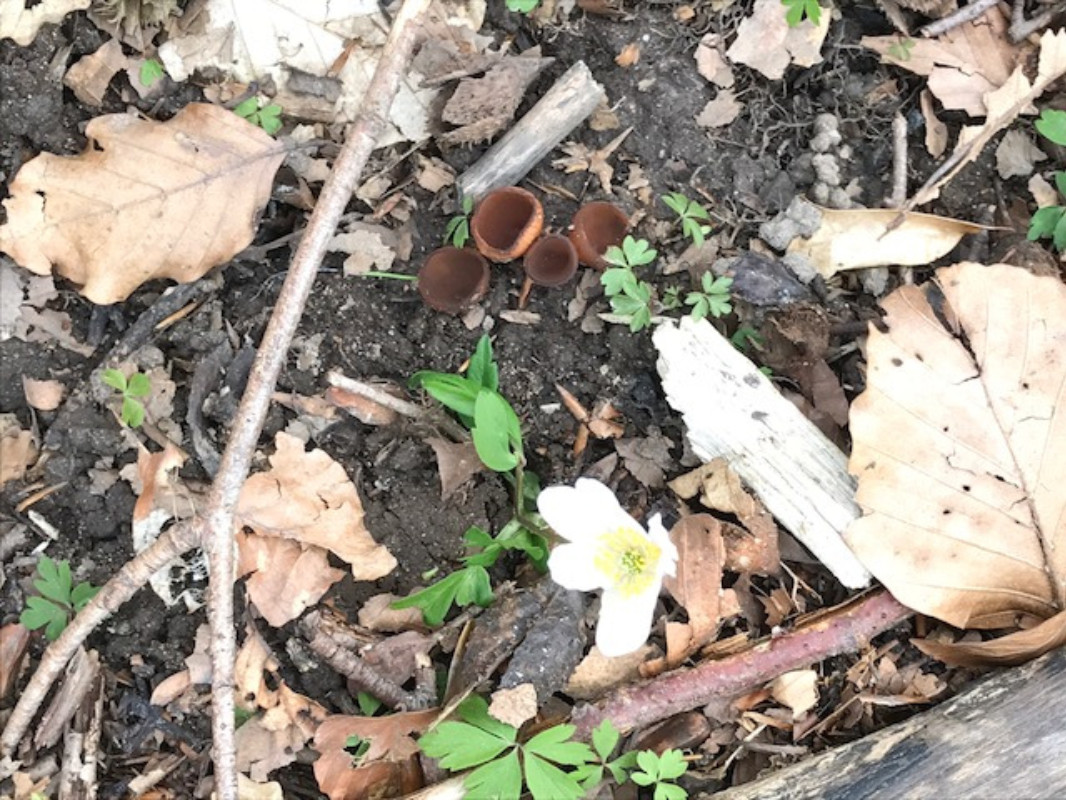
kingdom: Fungi
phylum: Ascomycota
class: Leotiomycetes
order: Helotiales
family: Sclerotiniaceae
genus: Dumontinia
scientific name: Dumontinia tuberosa
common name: anemone-knoldskive
